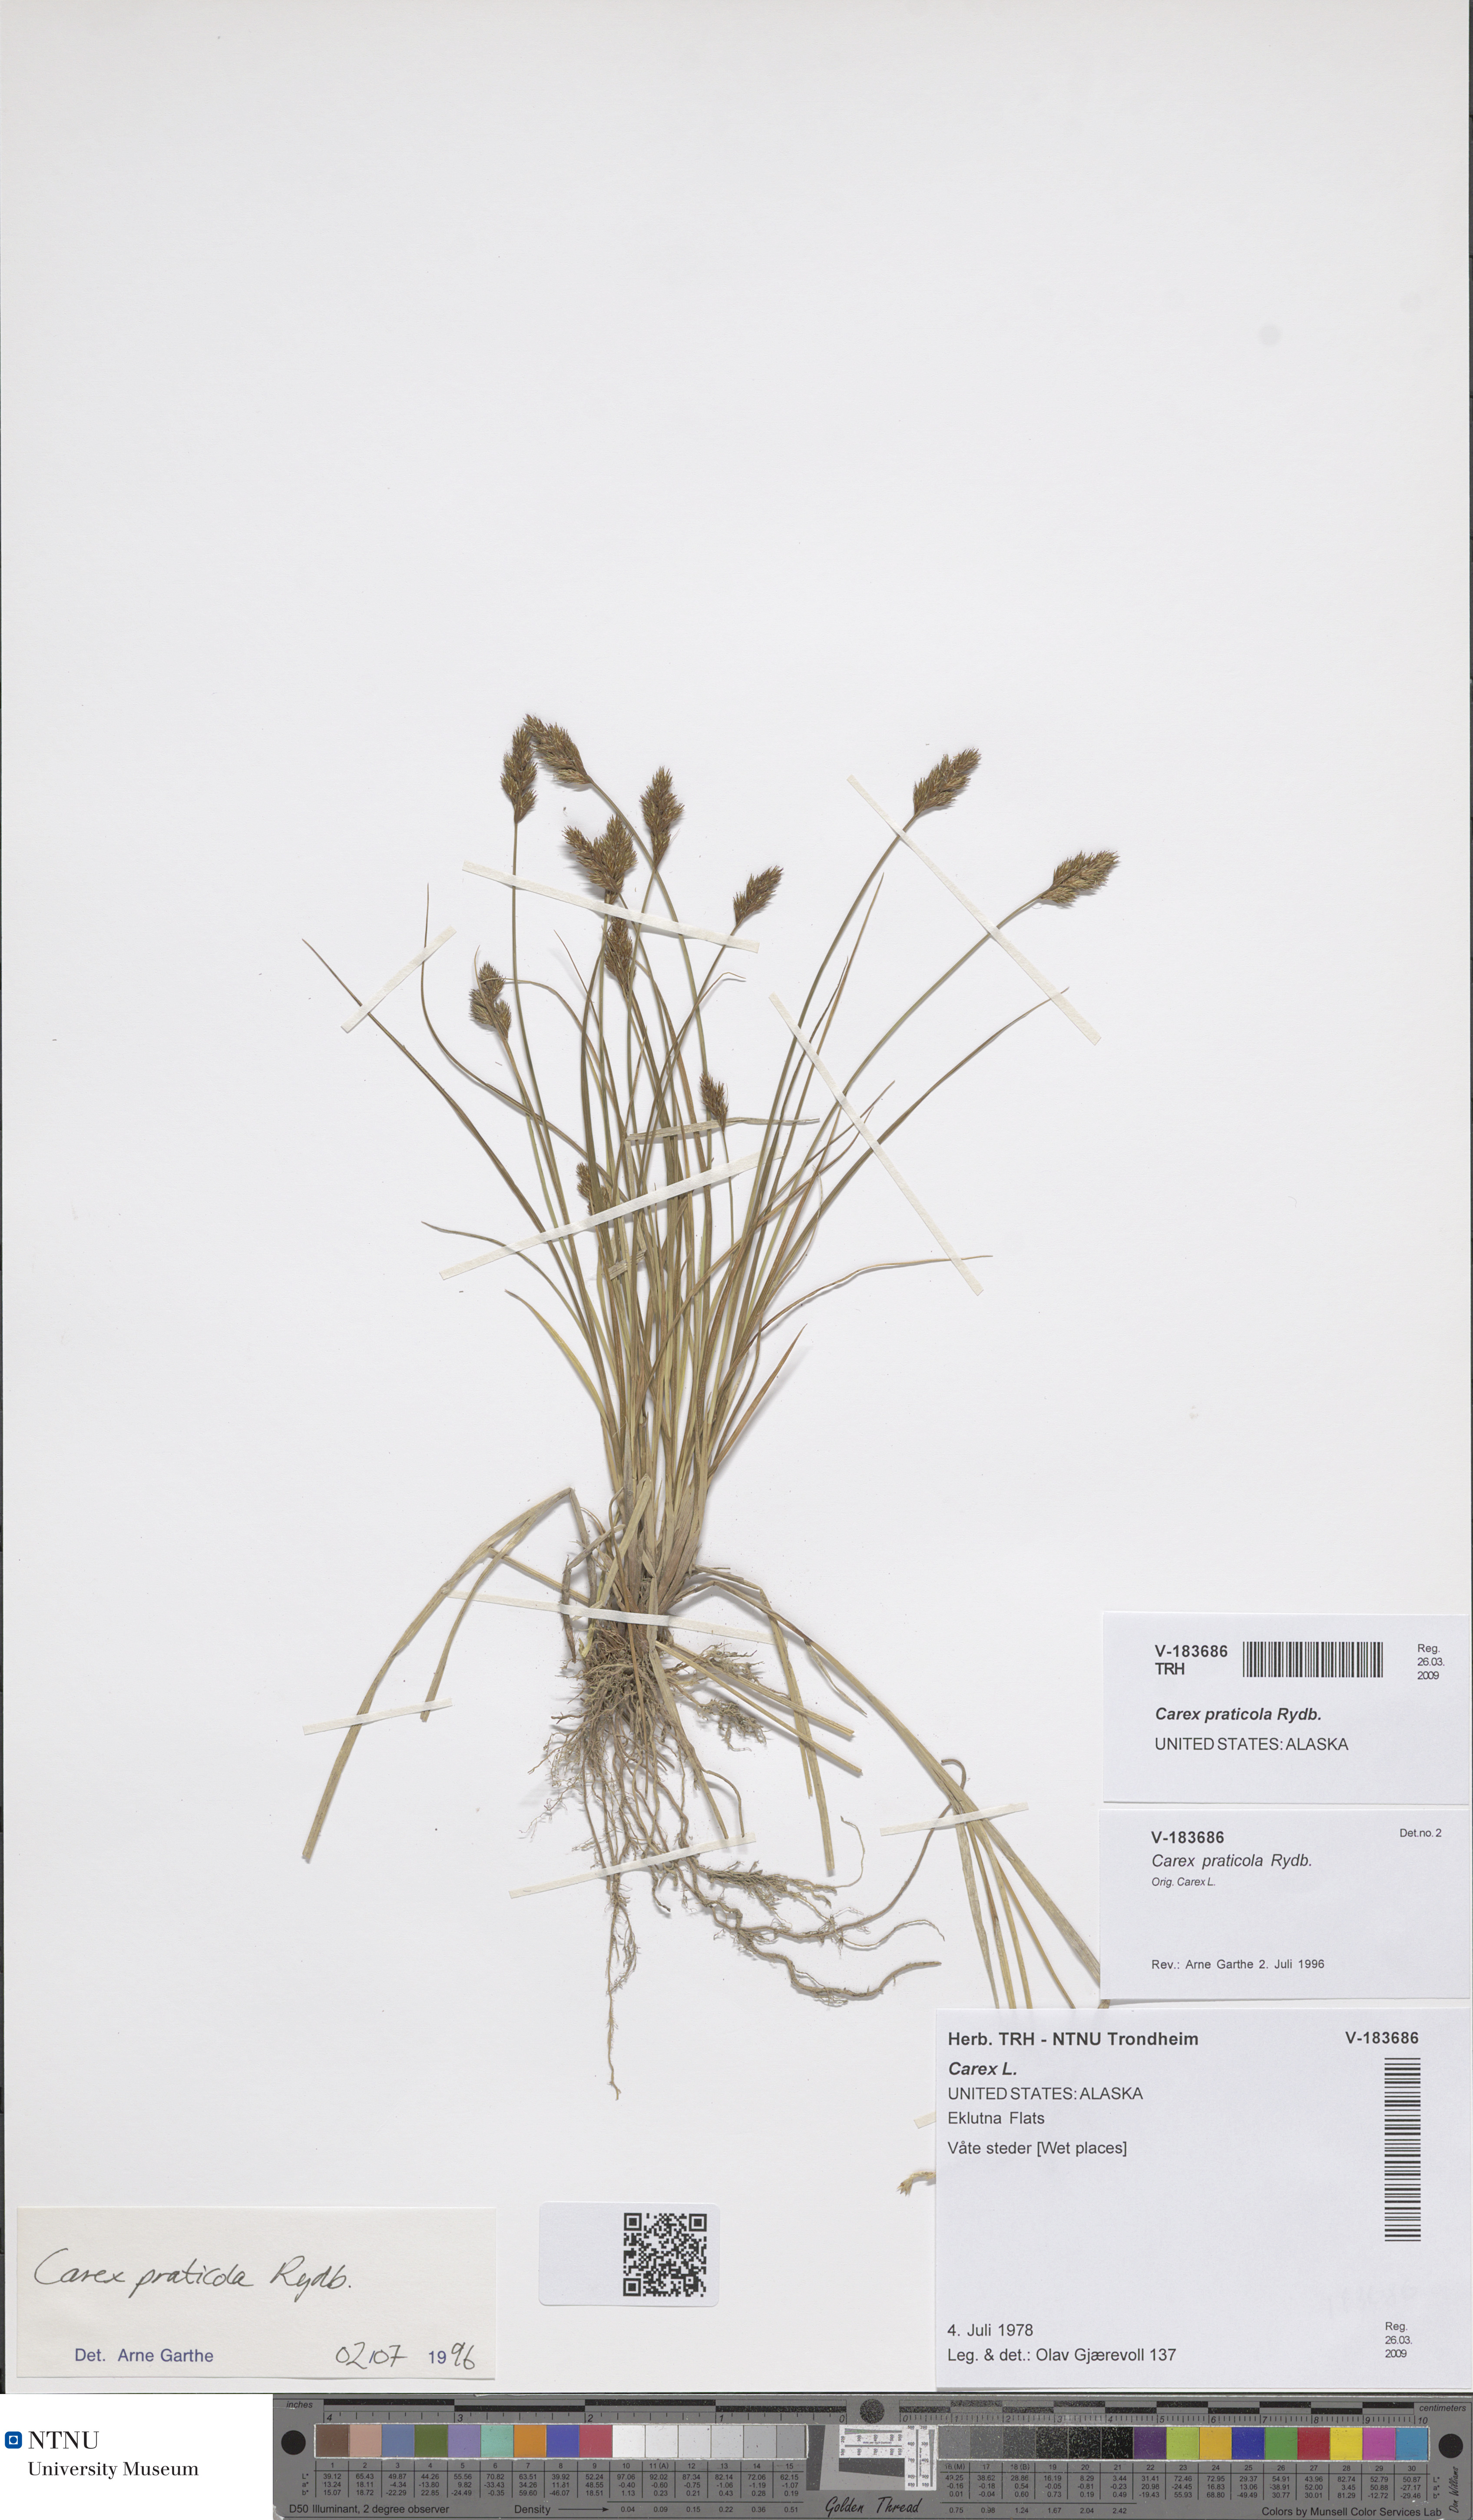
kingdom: Plantae
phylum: Tracheophyta
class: Liliopsida
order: Poales
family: Cyperaceae
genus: Carex
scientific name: Carex praticola
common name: Large-fruited oval sedge
